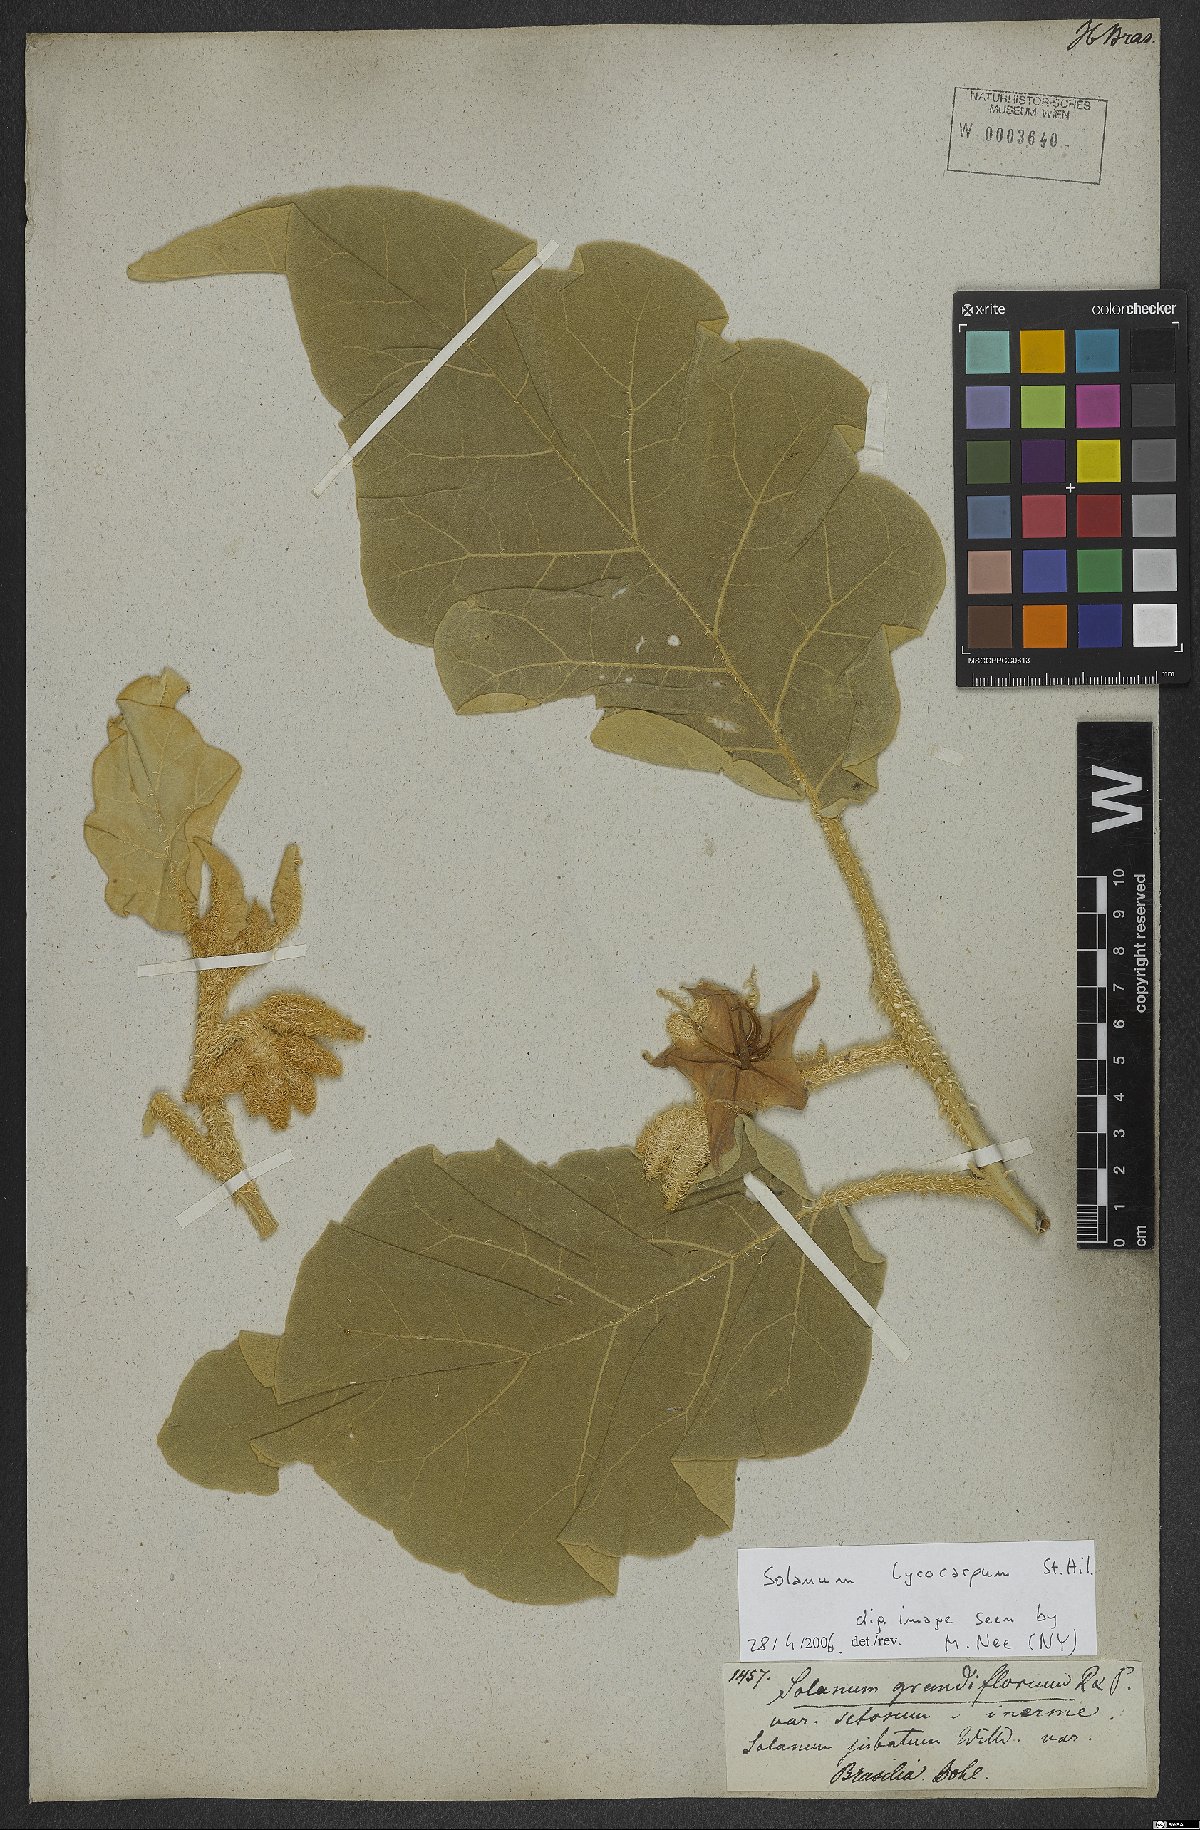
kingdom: Plantae
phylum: Tracheophyta
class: Magnoliopsida
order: Solanales
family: Solanaceae
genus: Solanum
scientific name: Solanum falciforme
